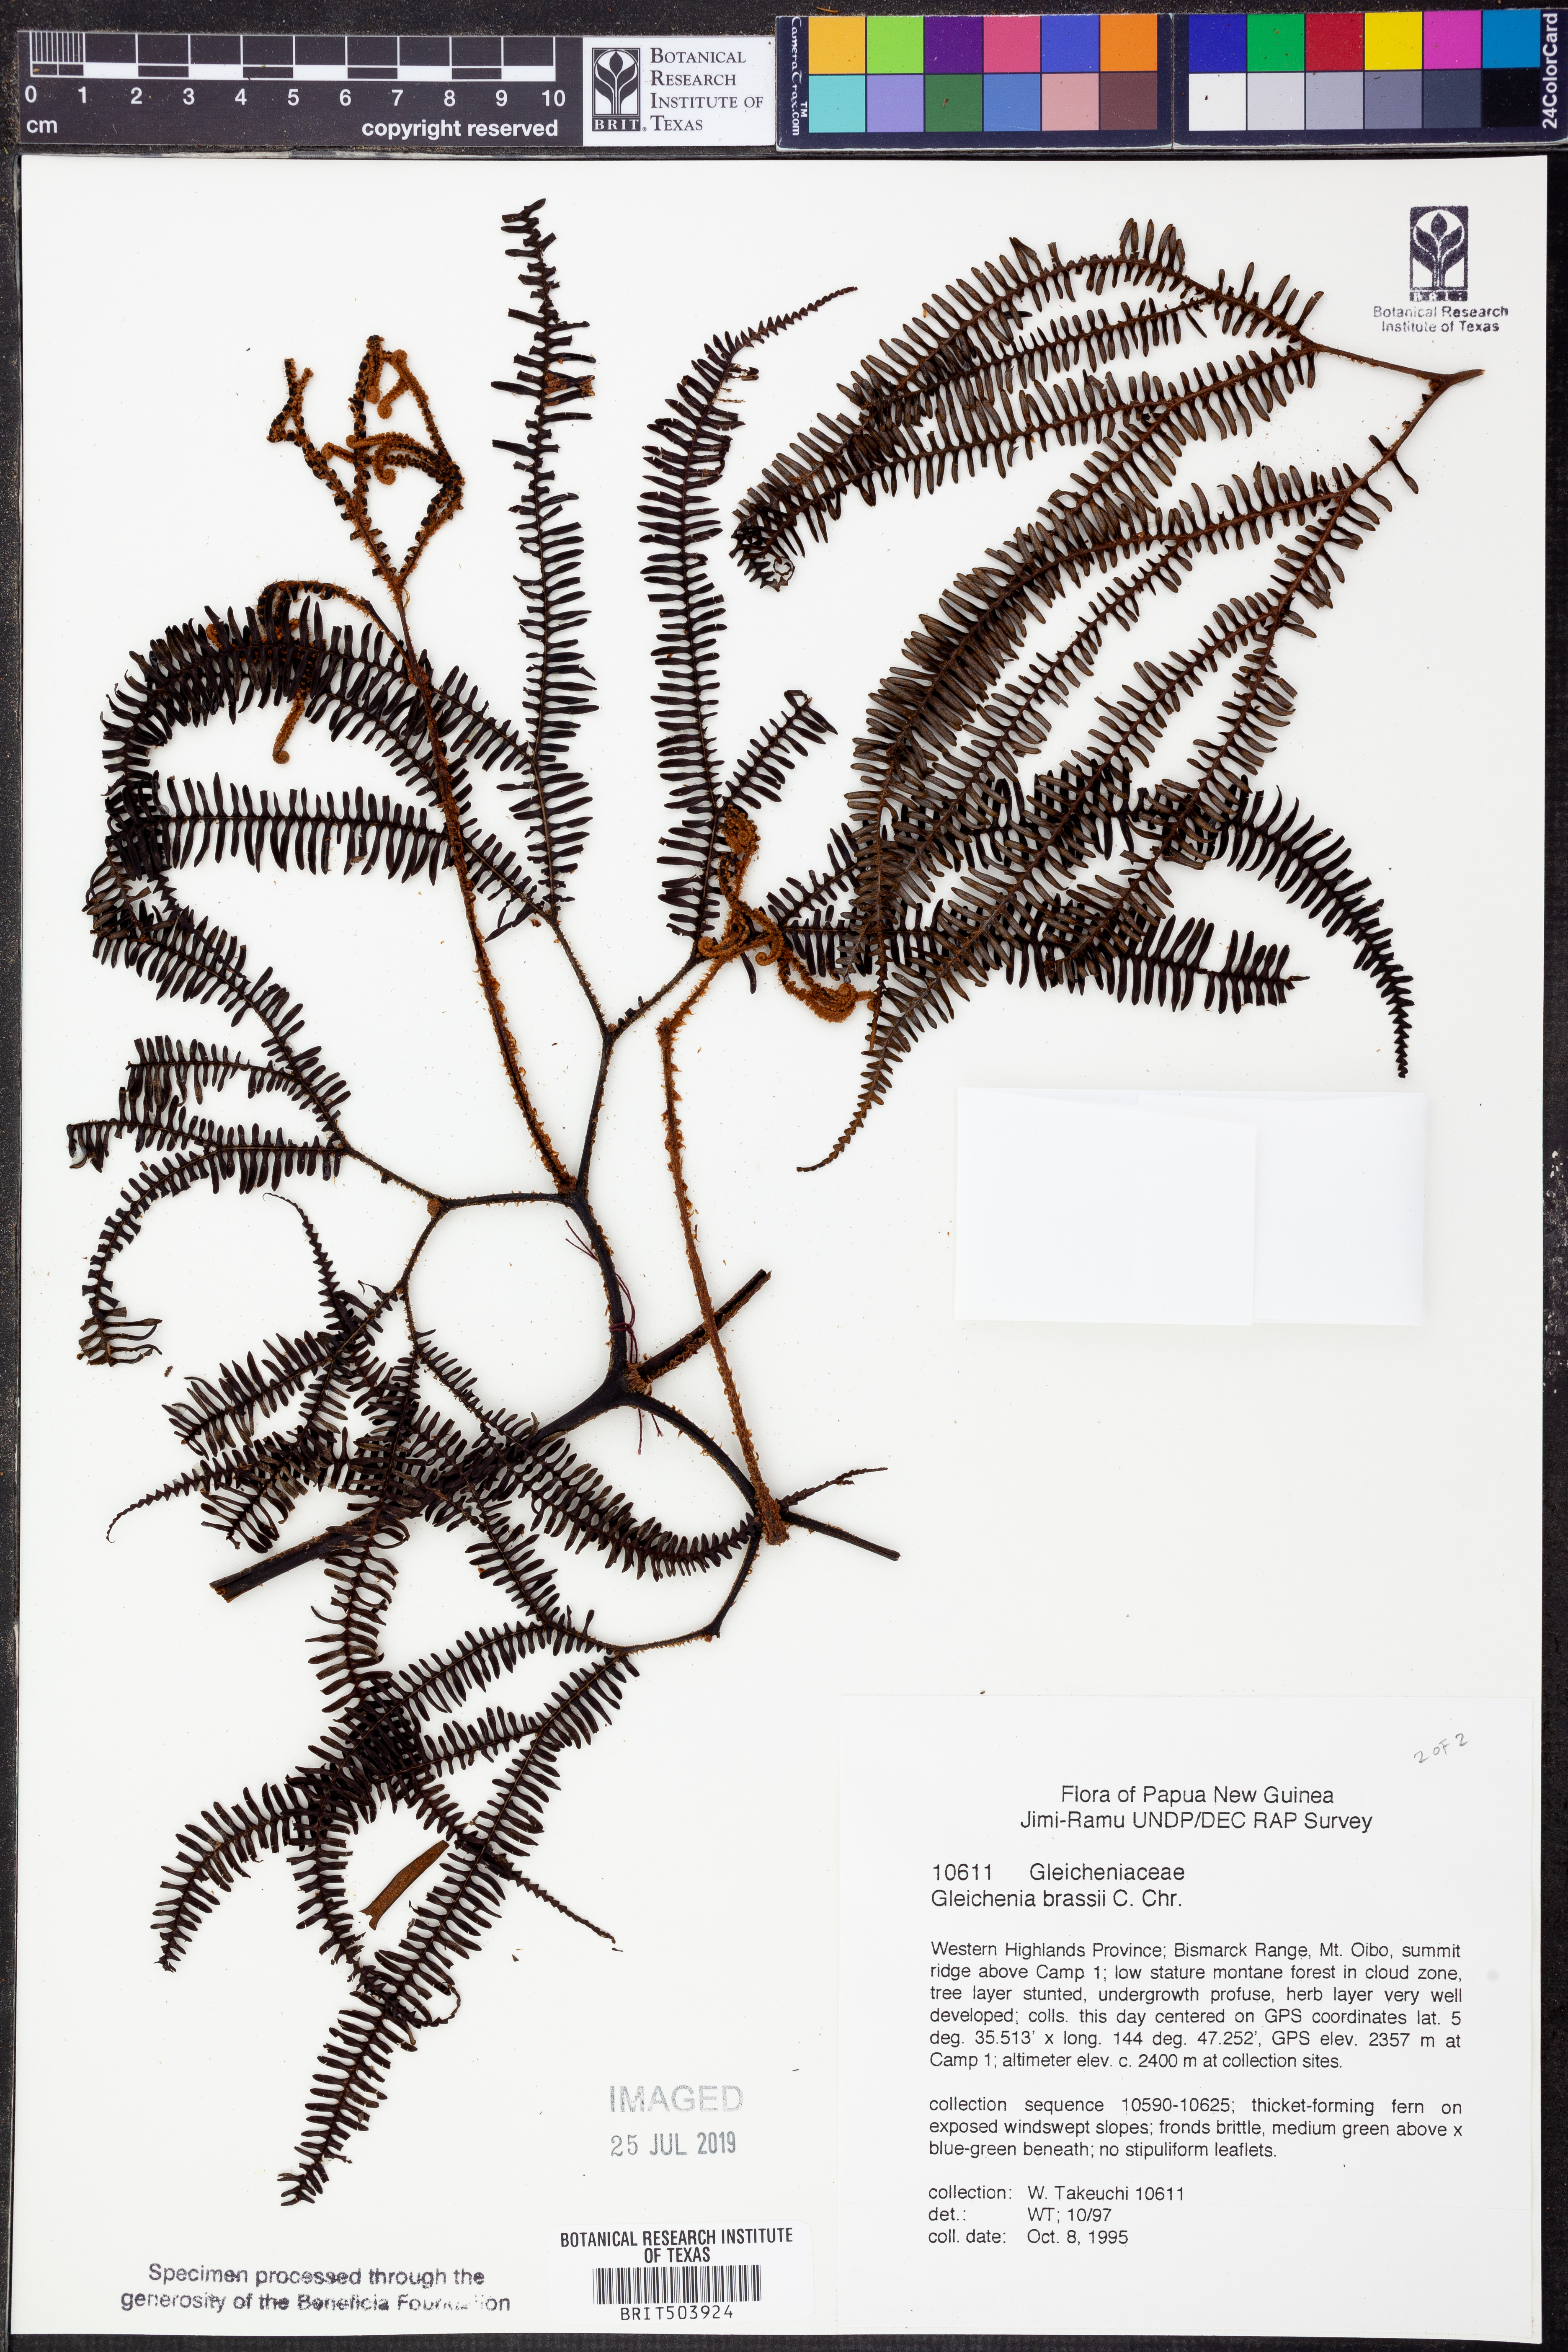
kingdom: Plantae
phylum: Tracheophyta
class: Polypodiopsida
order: Gleicheniales
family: Gleicheniaceae
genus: Sticherus
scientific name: Sticherus brassii
